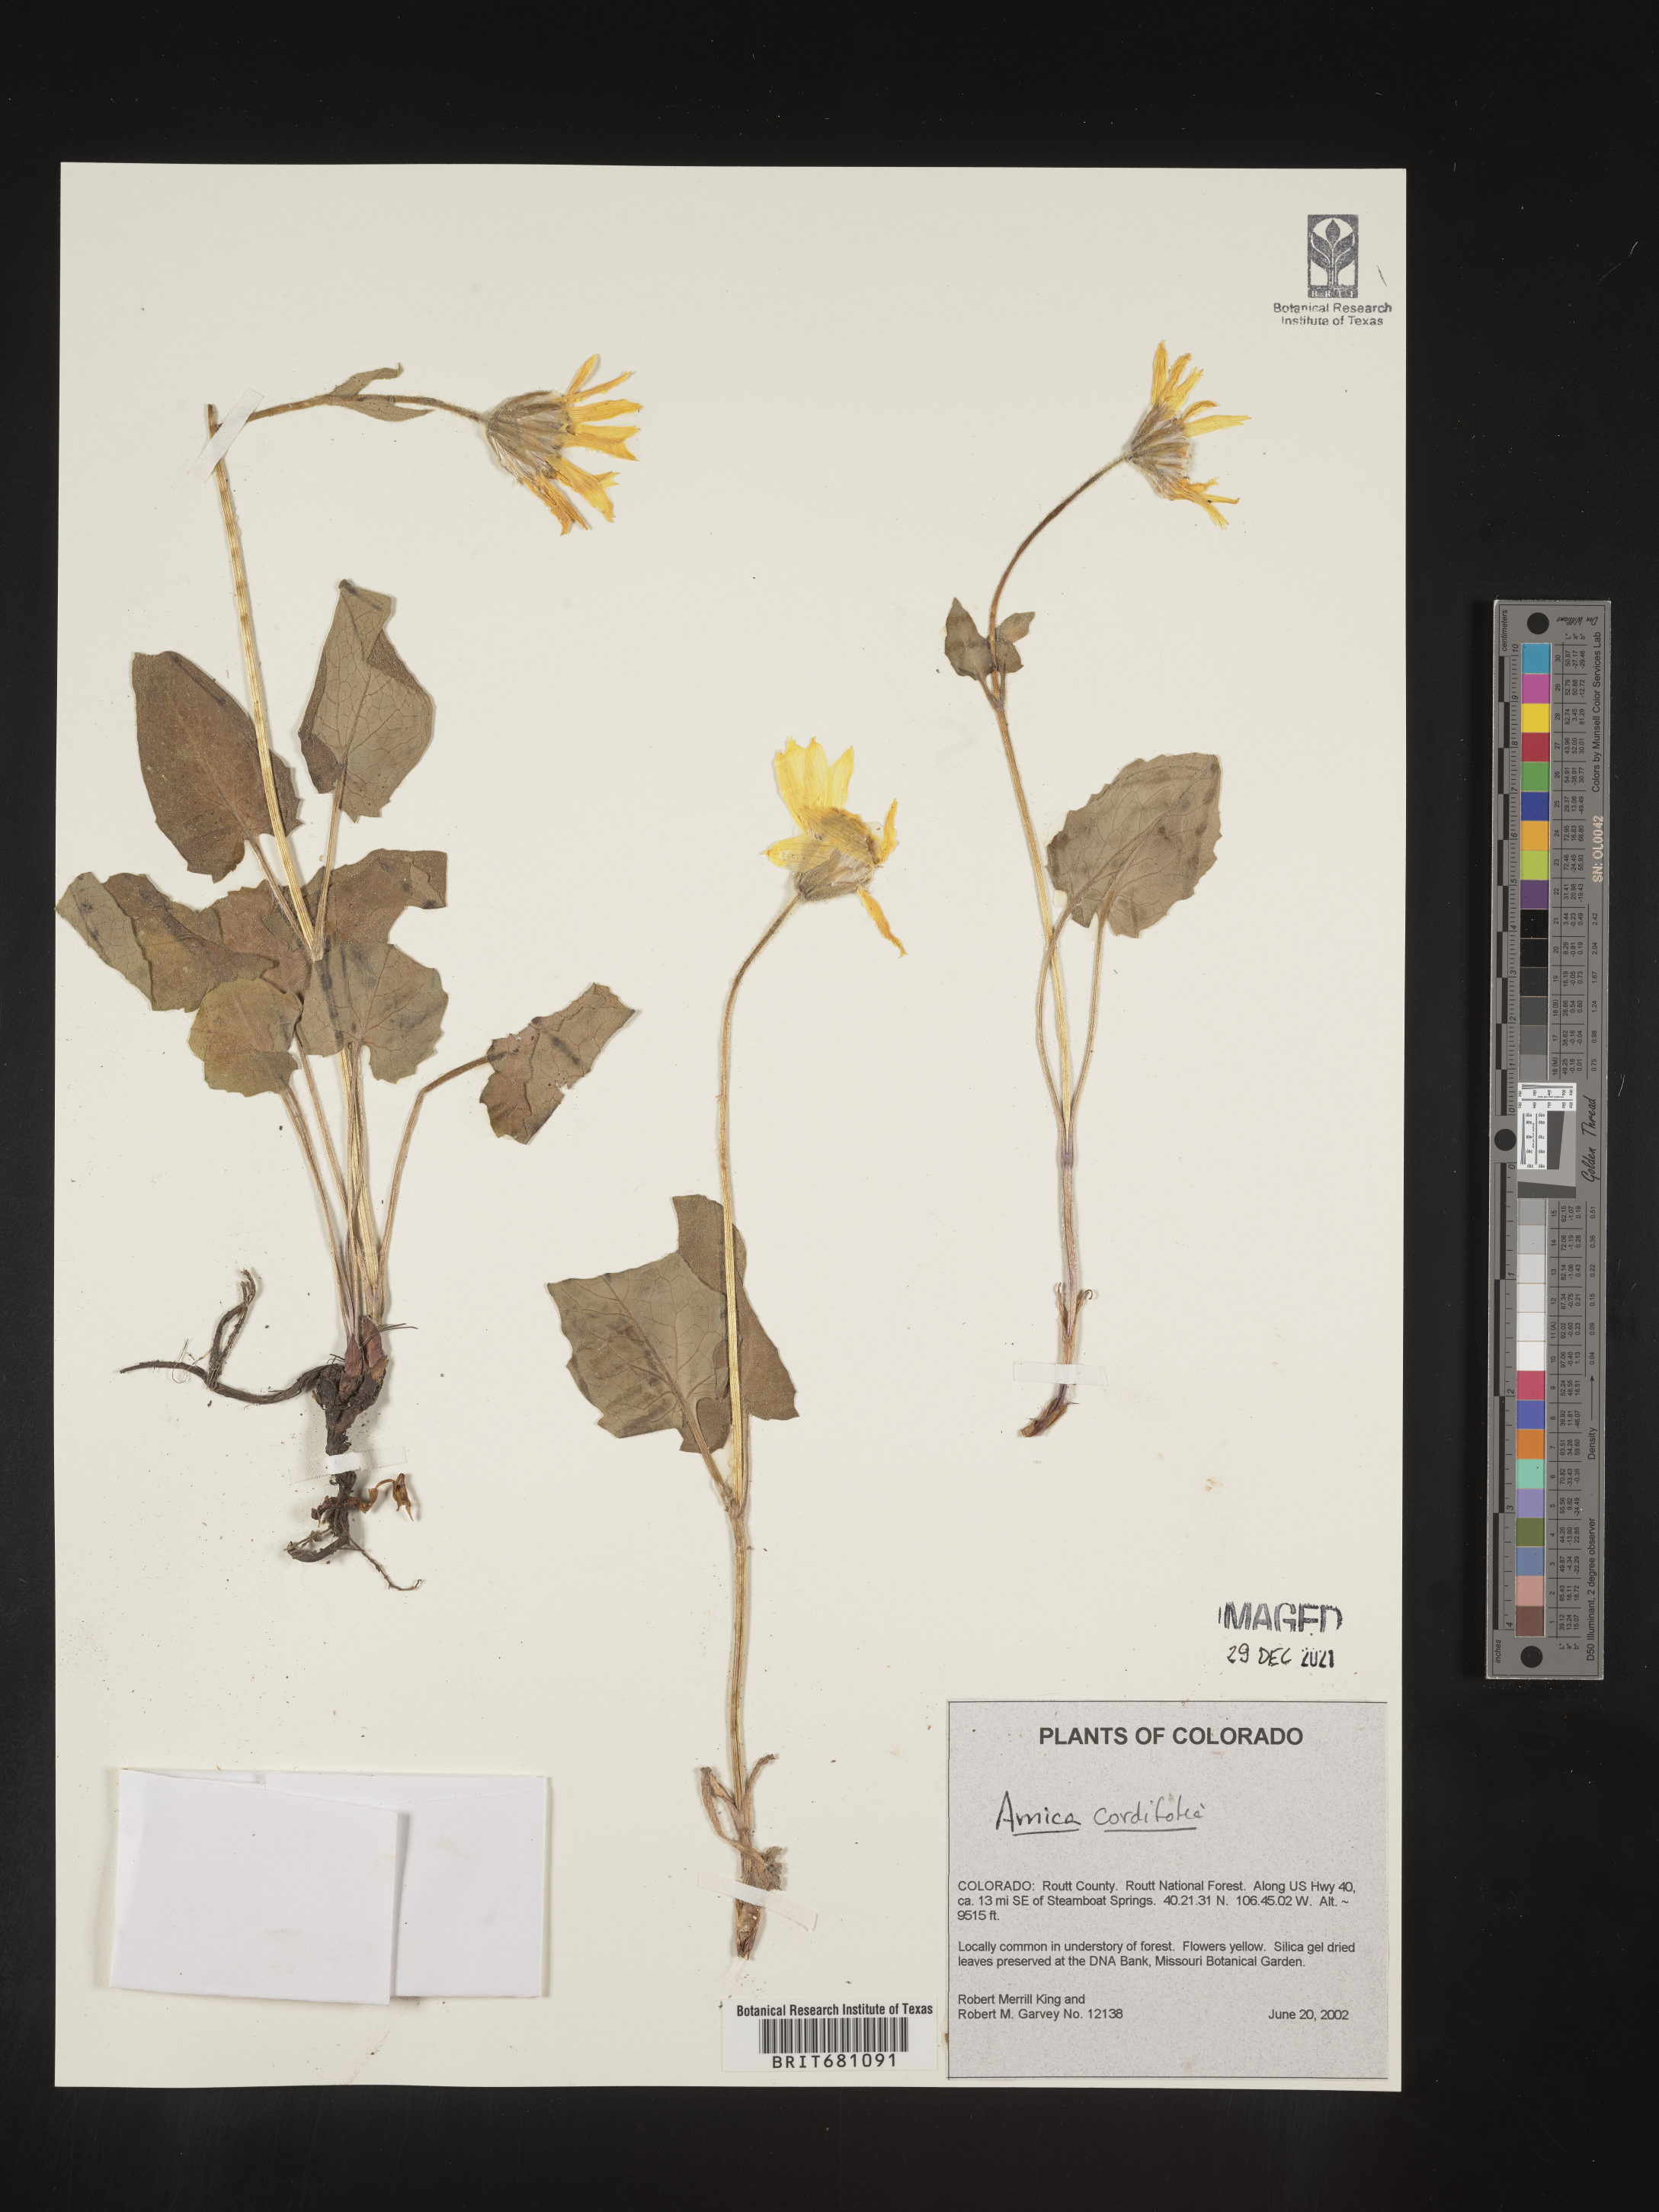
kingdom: Plantae
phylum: Tracheophyta
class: Magnoliopsida
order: Asterales
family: Asteraceae
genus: Arnica
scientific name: Arnica cordifolia
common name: Heart-leaf arnica
